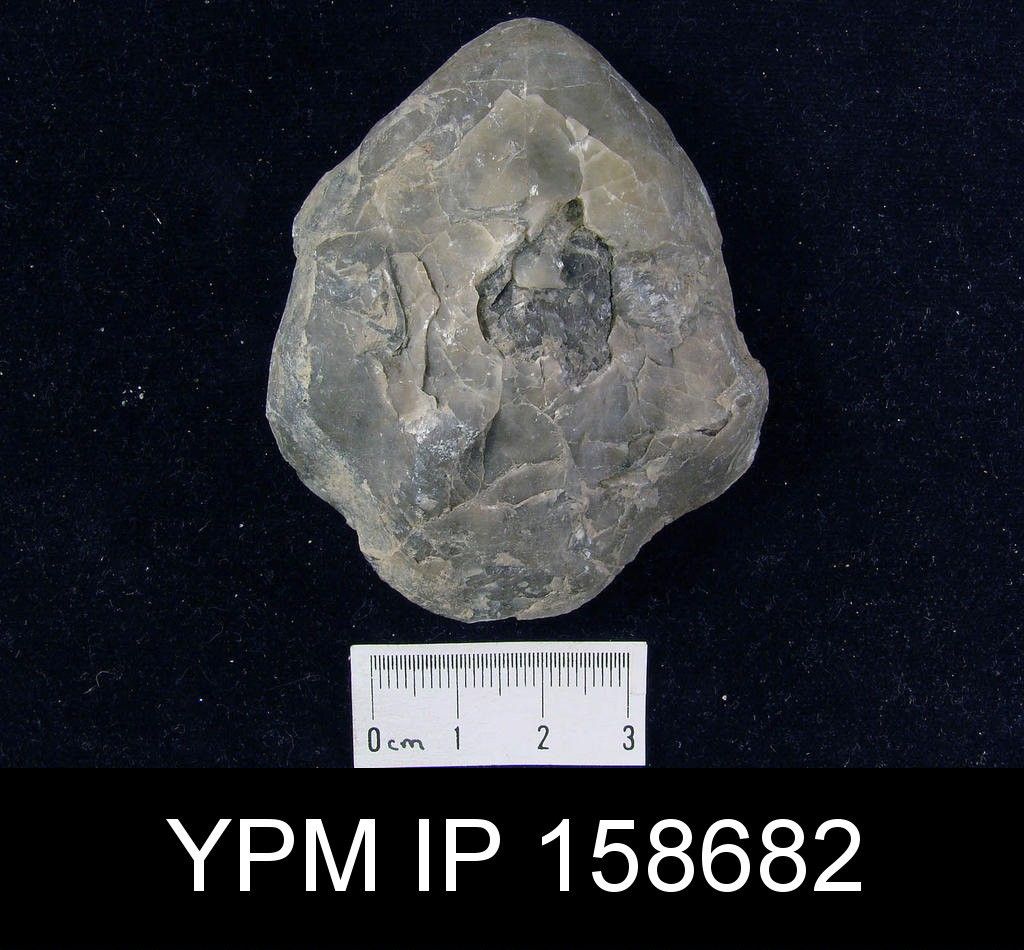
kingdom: Animalia
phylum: Brachiopoda
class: Rhynchonellata
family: Pentameridae
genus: Pentamerus
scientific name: Pentamerus oblongus
